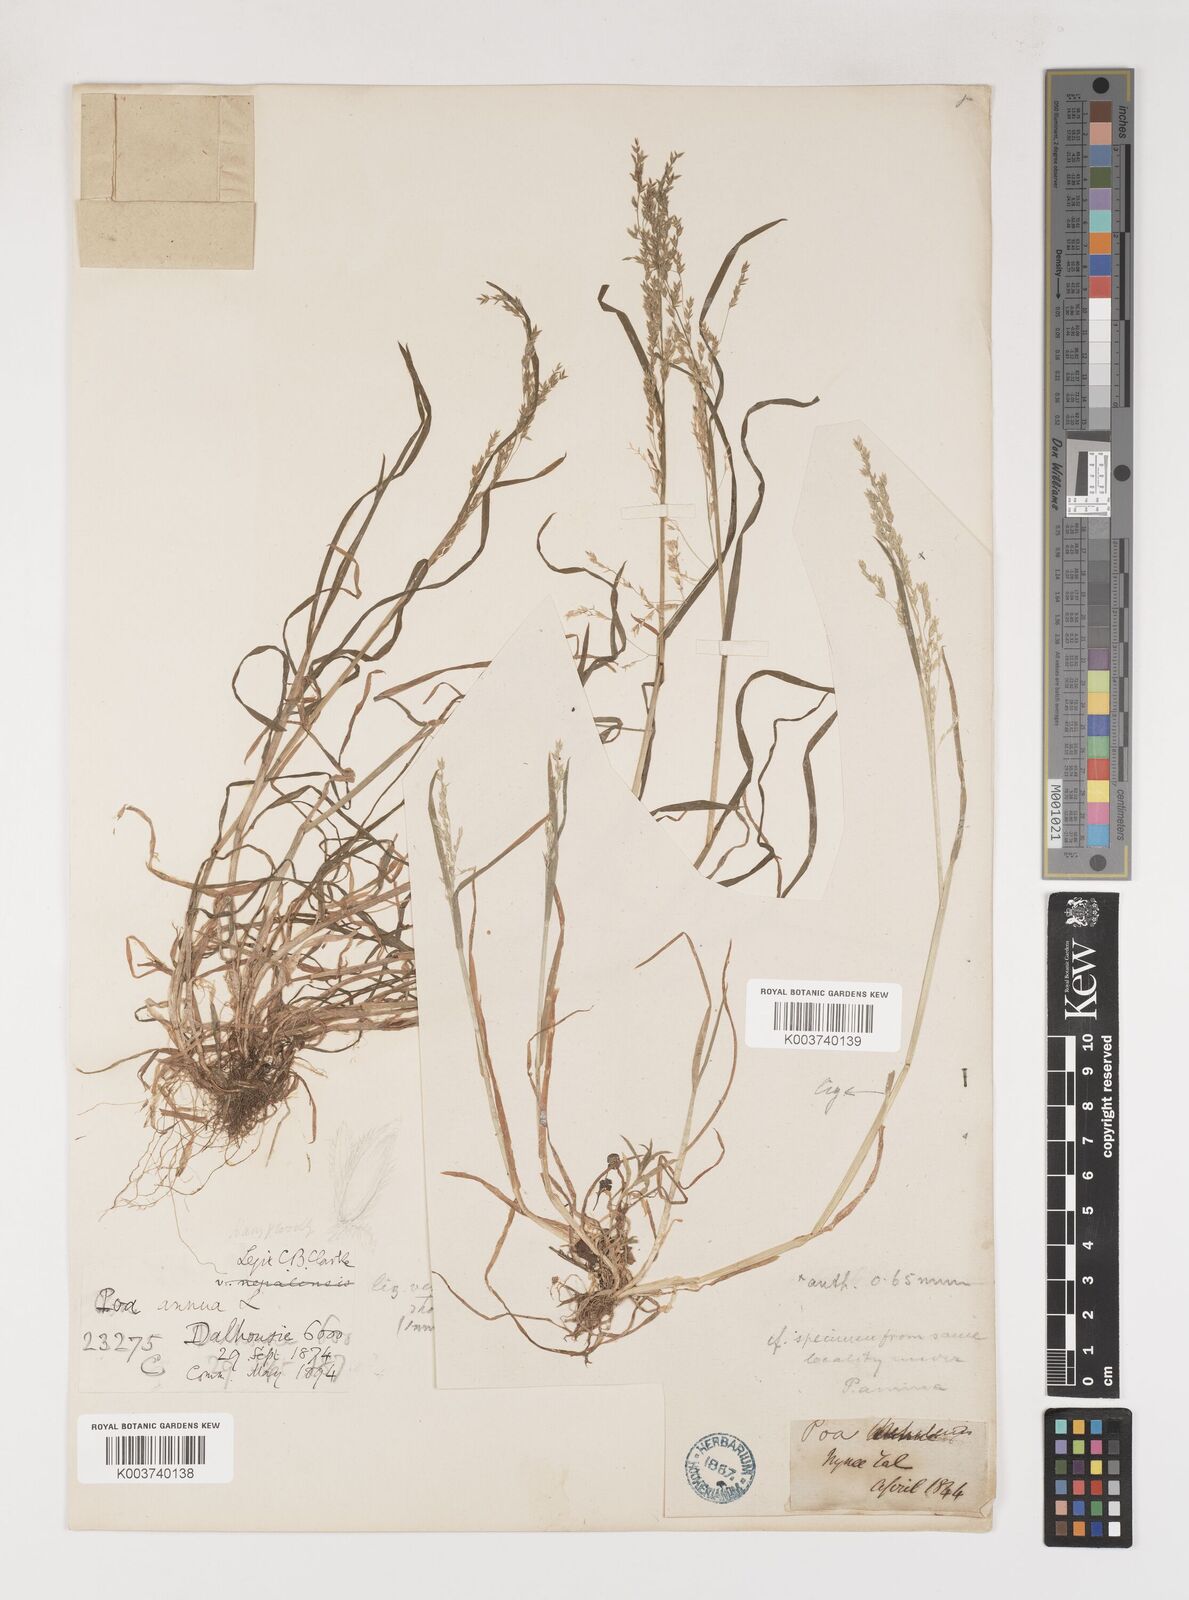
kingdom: Plantae
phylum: Tracheophyta
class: Liliopsida
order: Poales
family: Poaceae
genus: Poa
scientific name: Poa nepalensis
